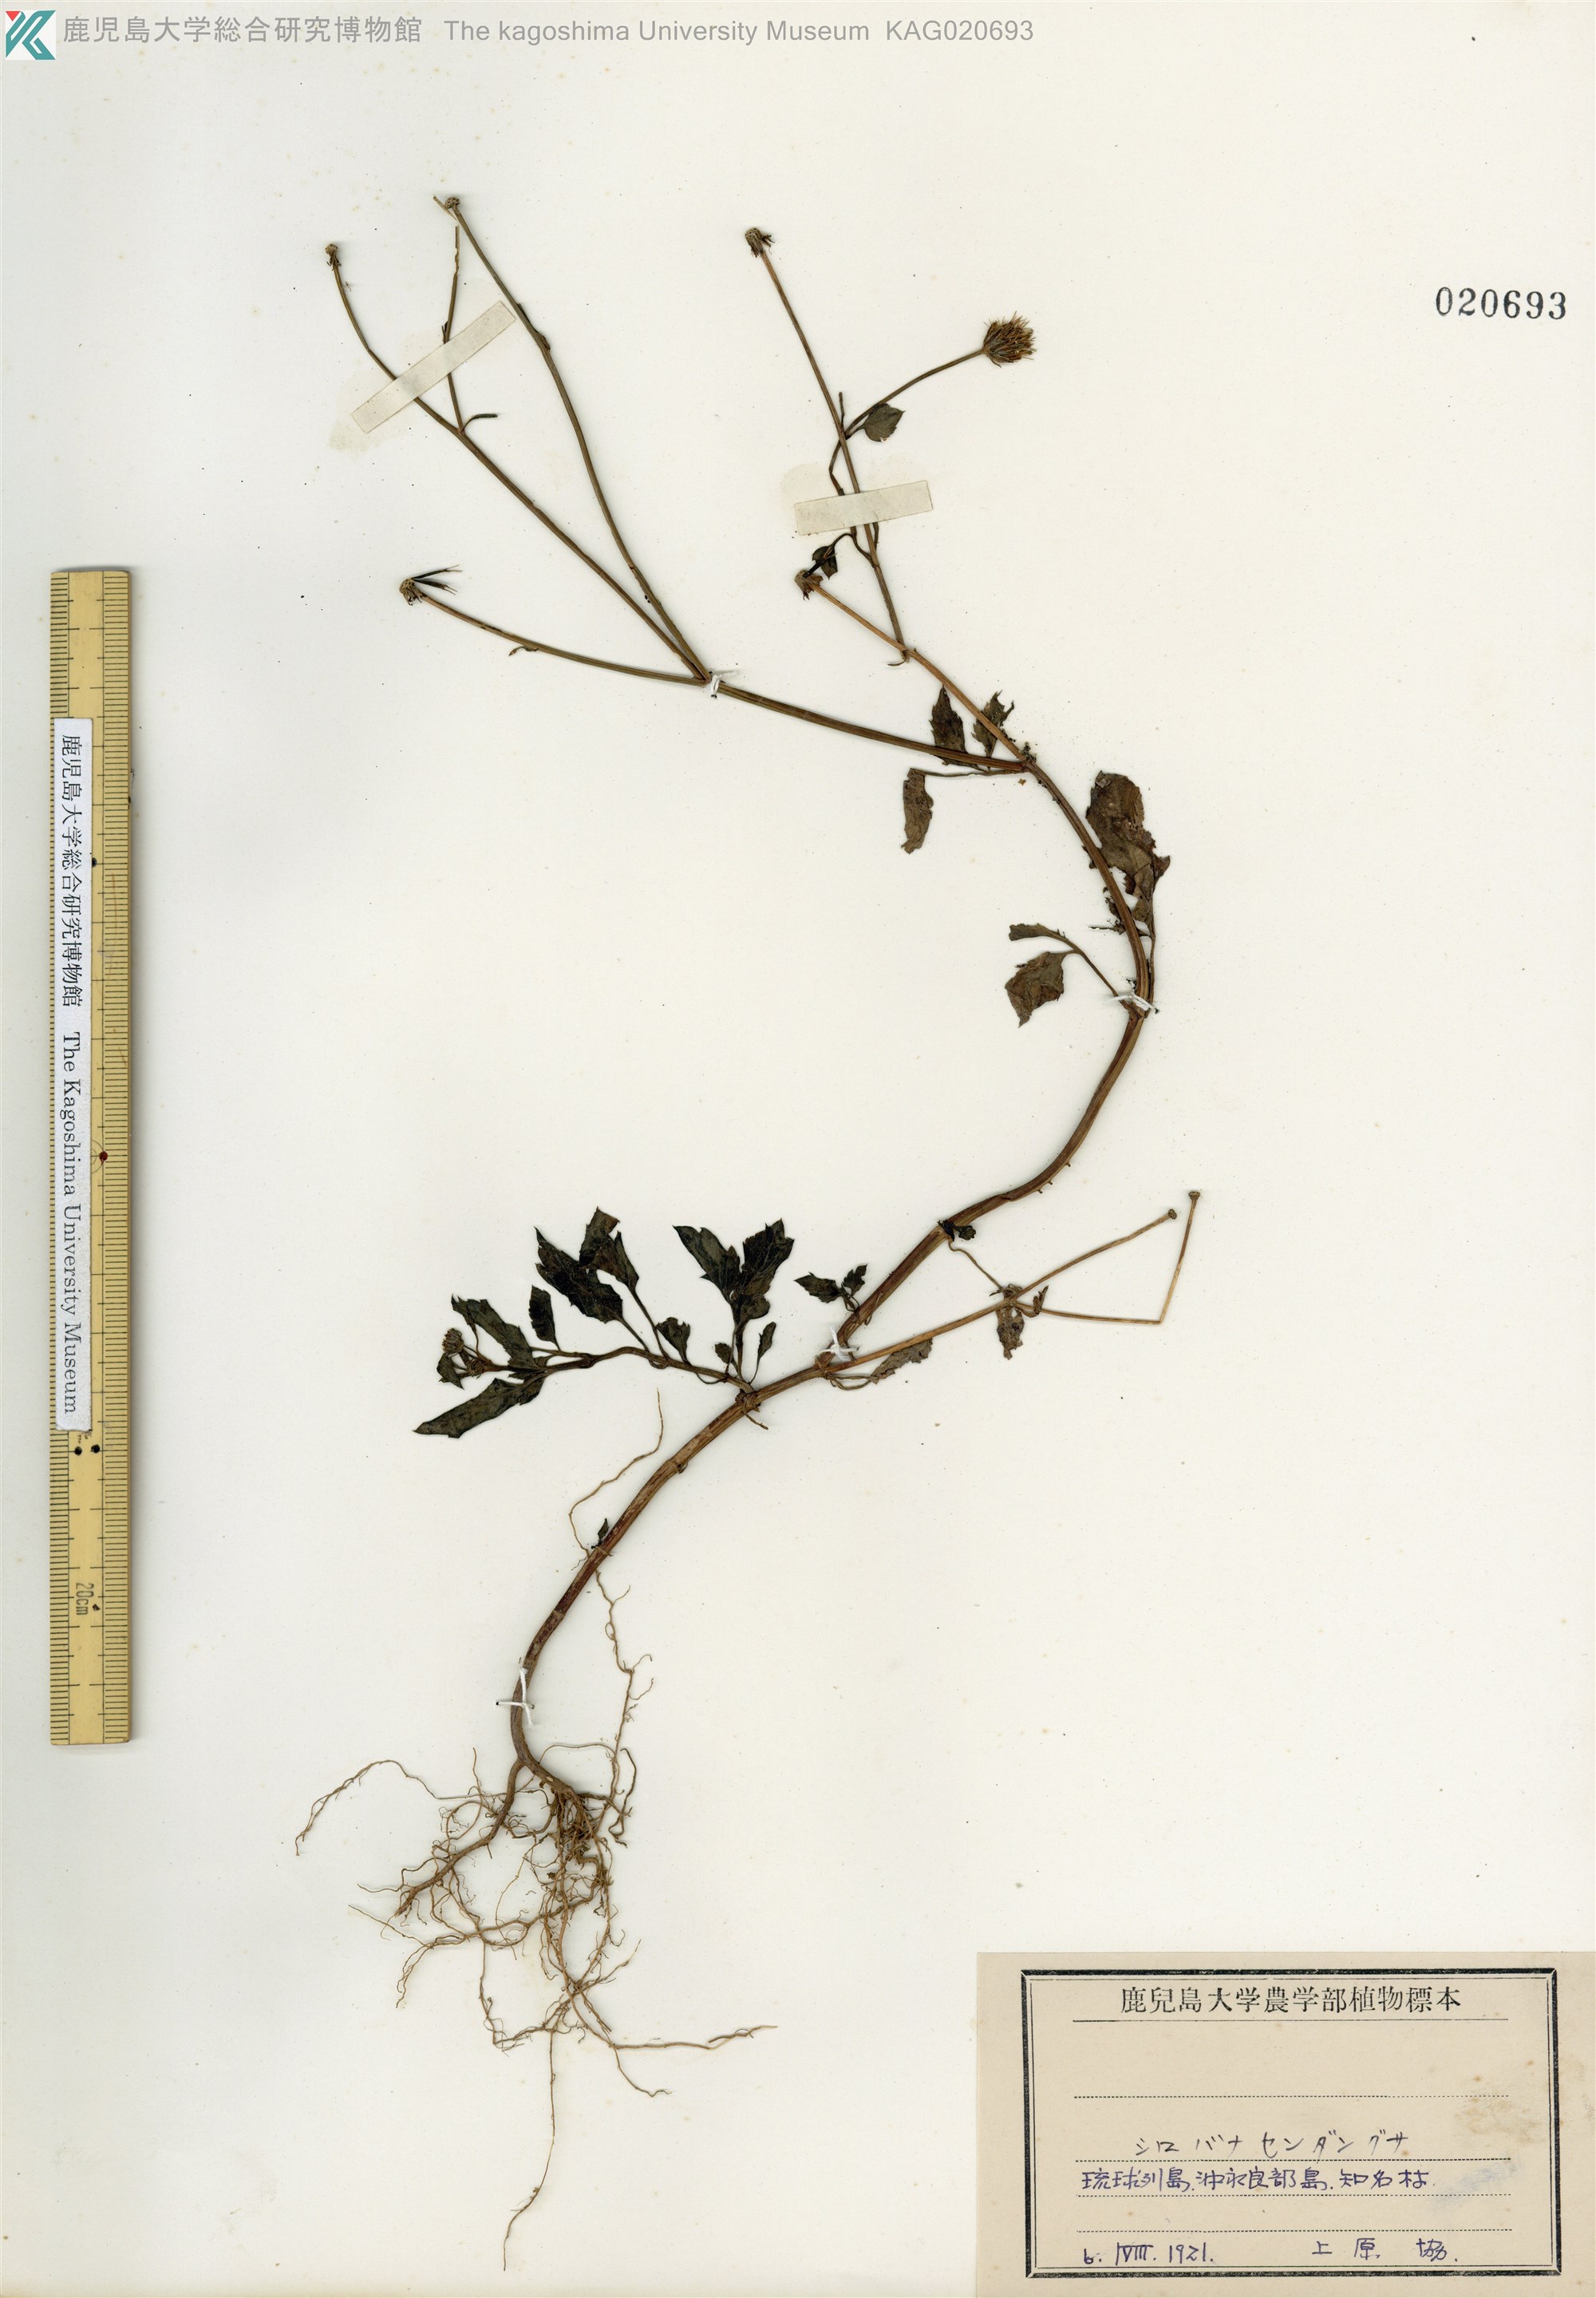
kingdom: Plantae
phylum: Tracheophyta
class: Magnoliopsida
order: Asterales
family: Asteraceae
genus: Bidens
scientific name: Bidens pilosa
